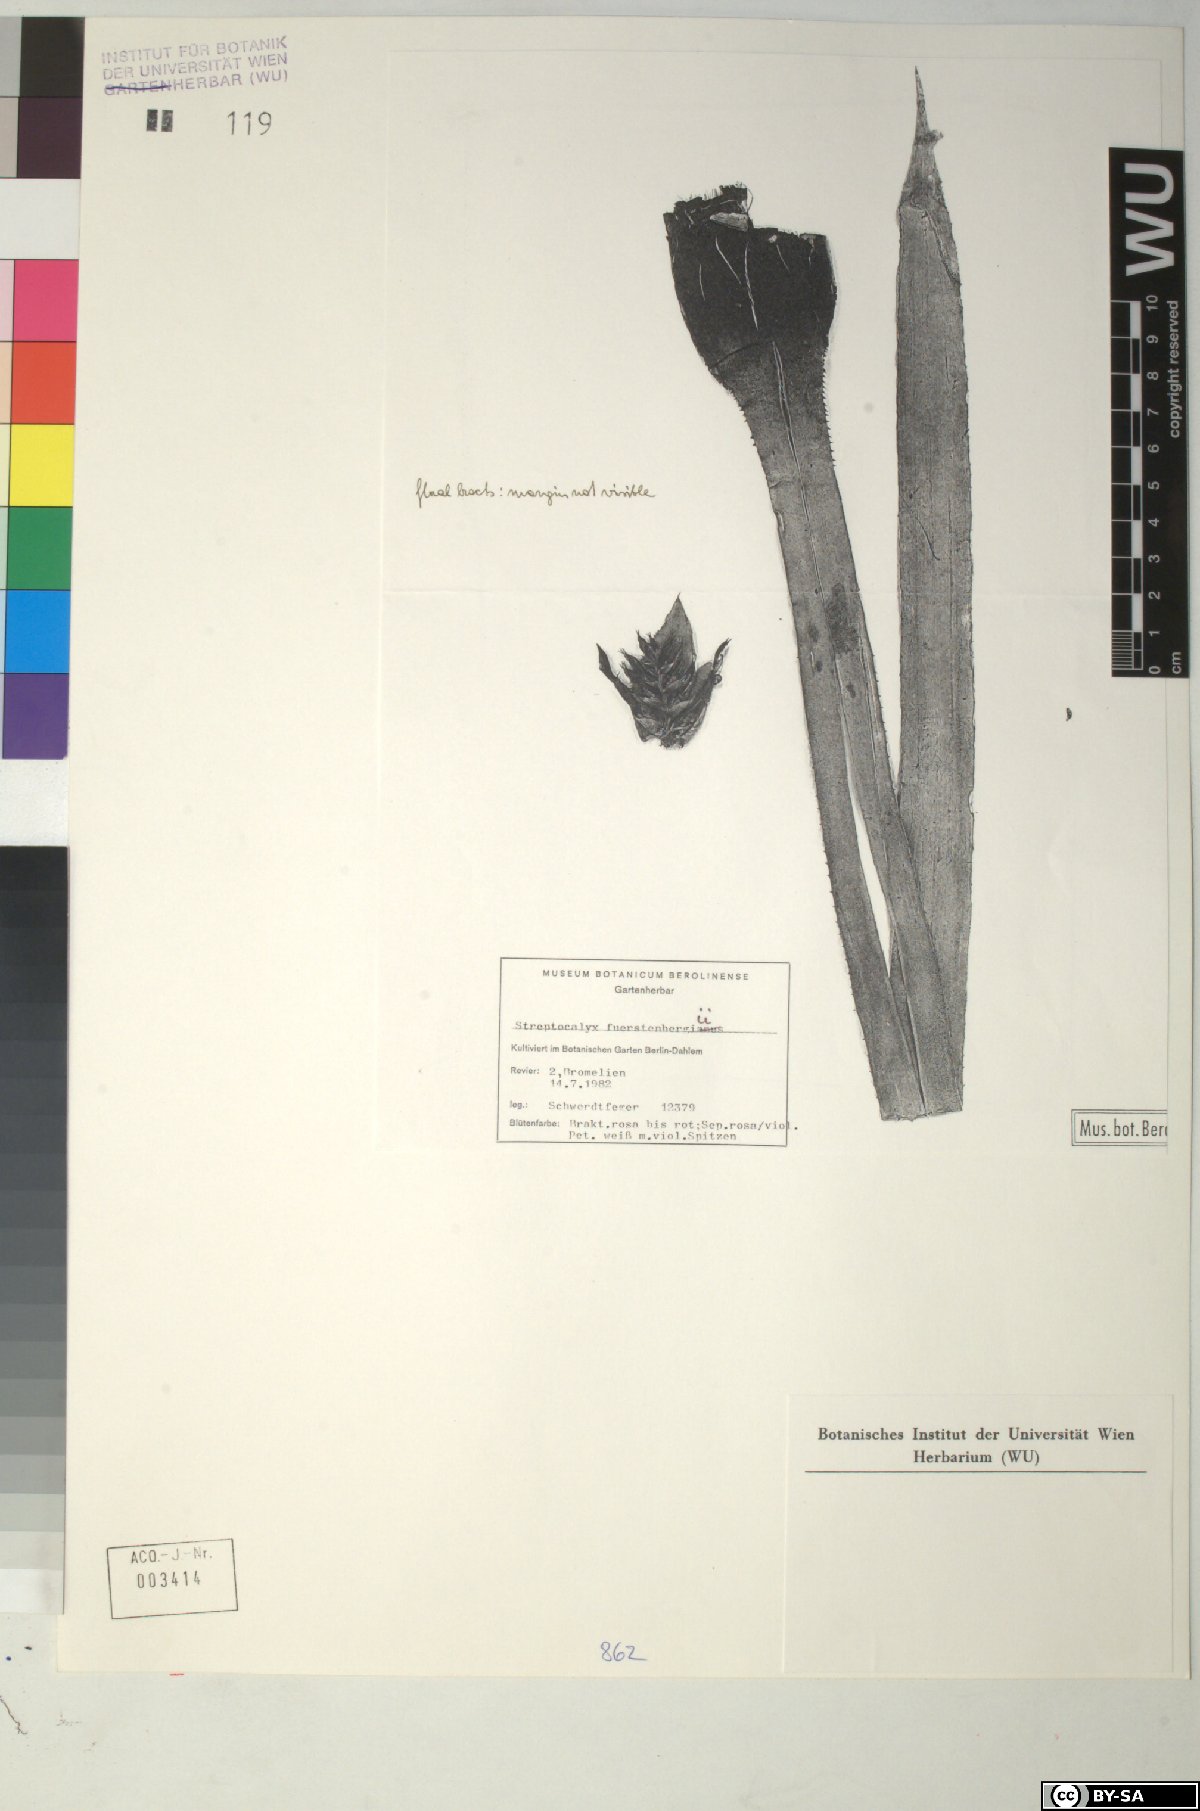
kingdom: Plantae
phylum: Tracheophyta
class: Liliopsida
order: Poales
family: Bromeliaceae
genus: Aechmea
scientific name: Aechmea
